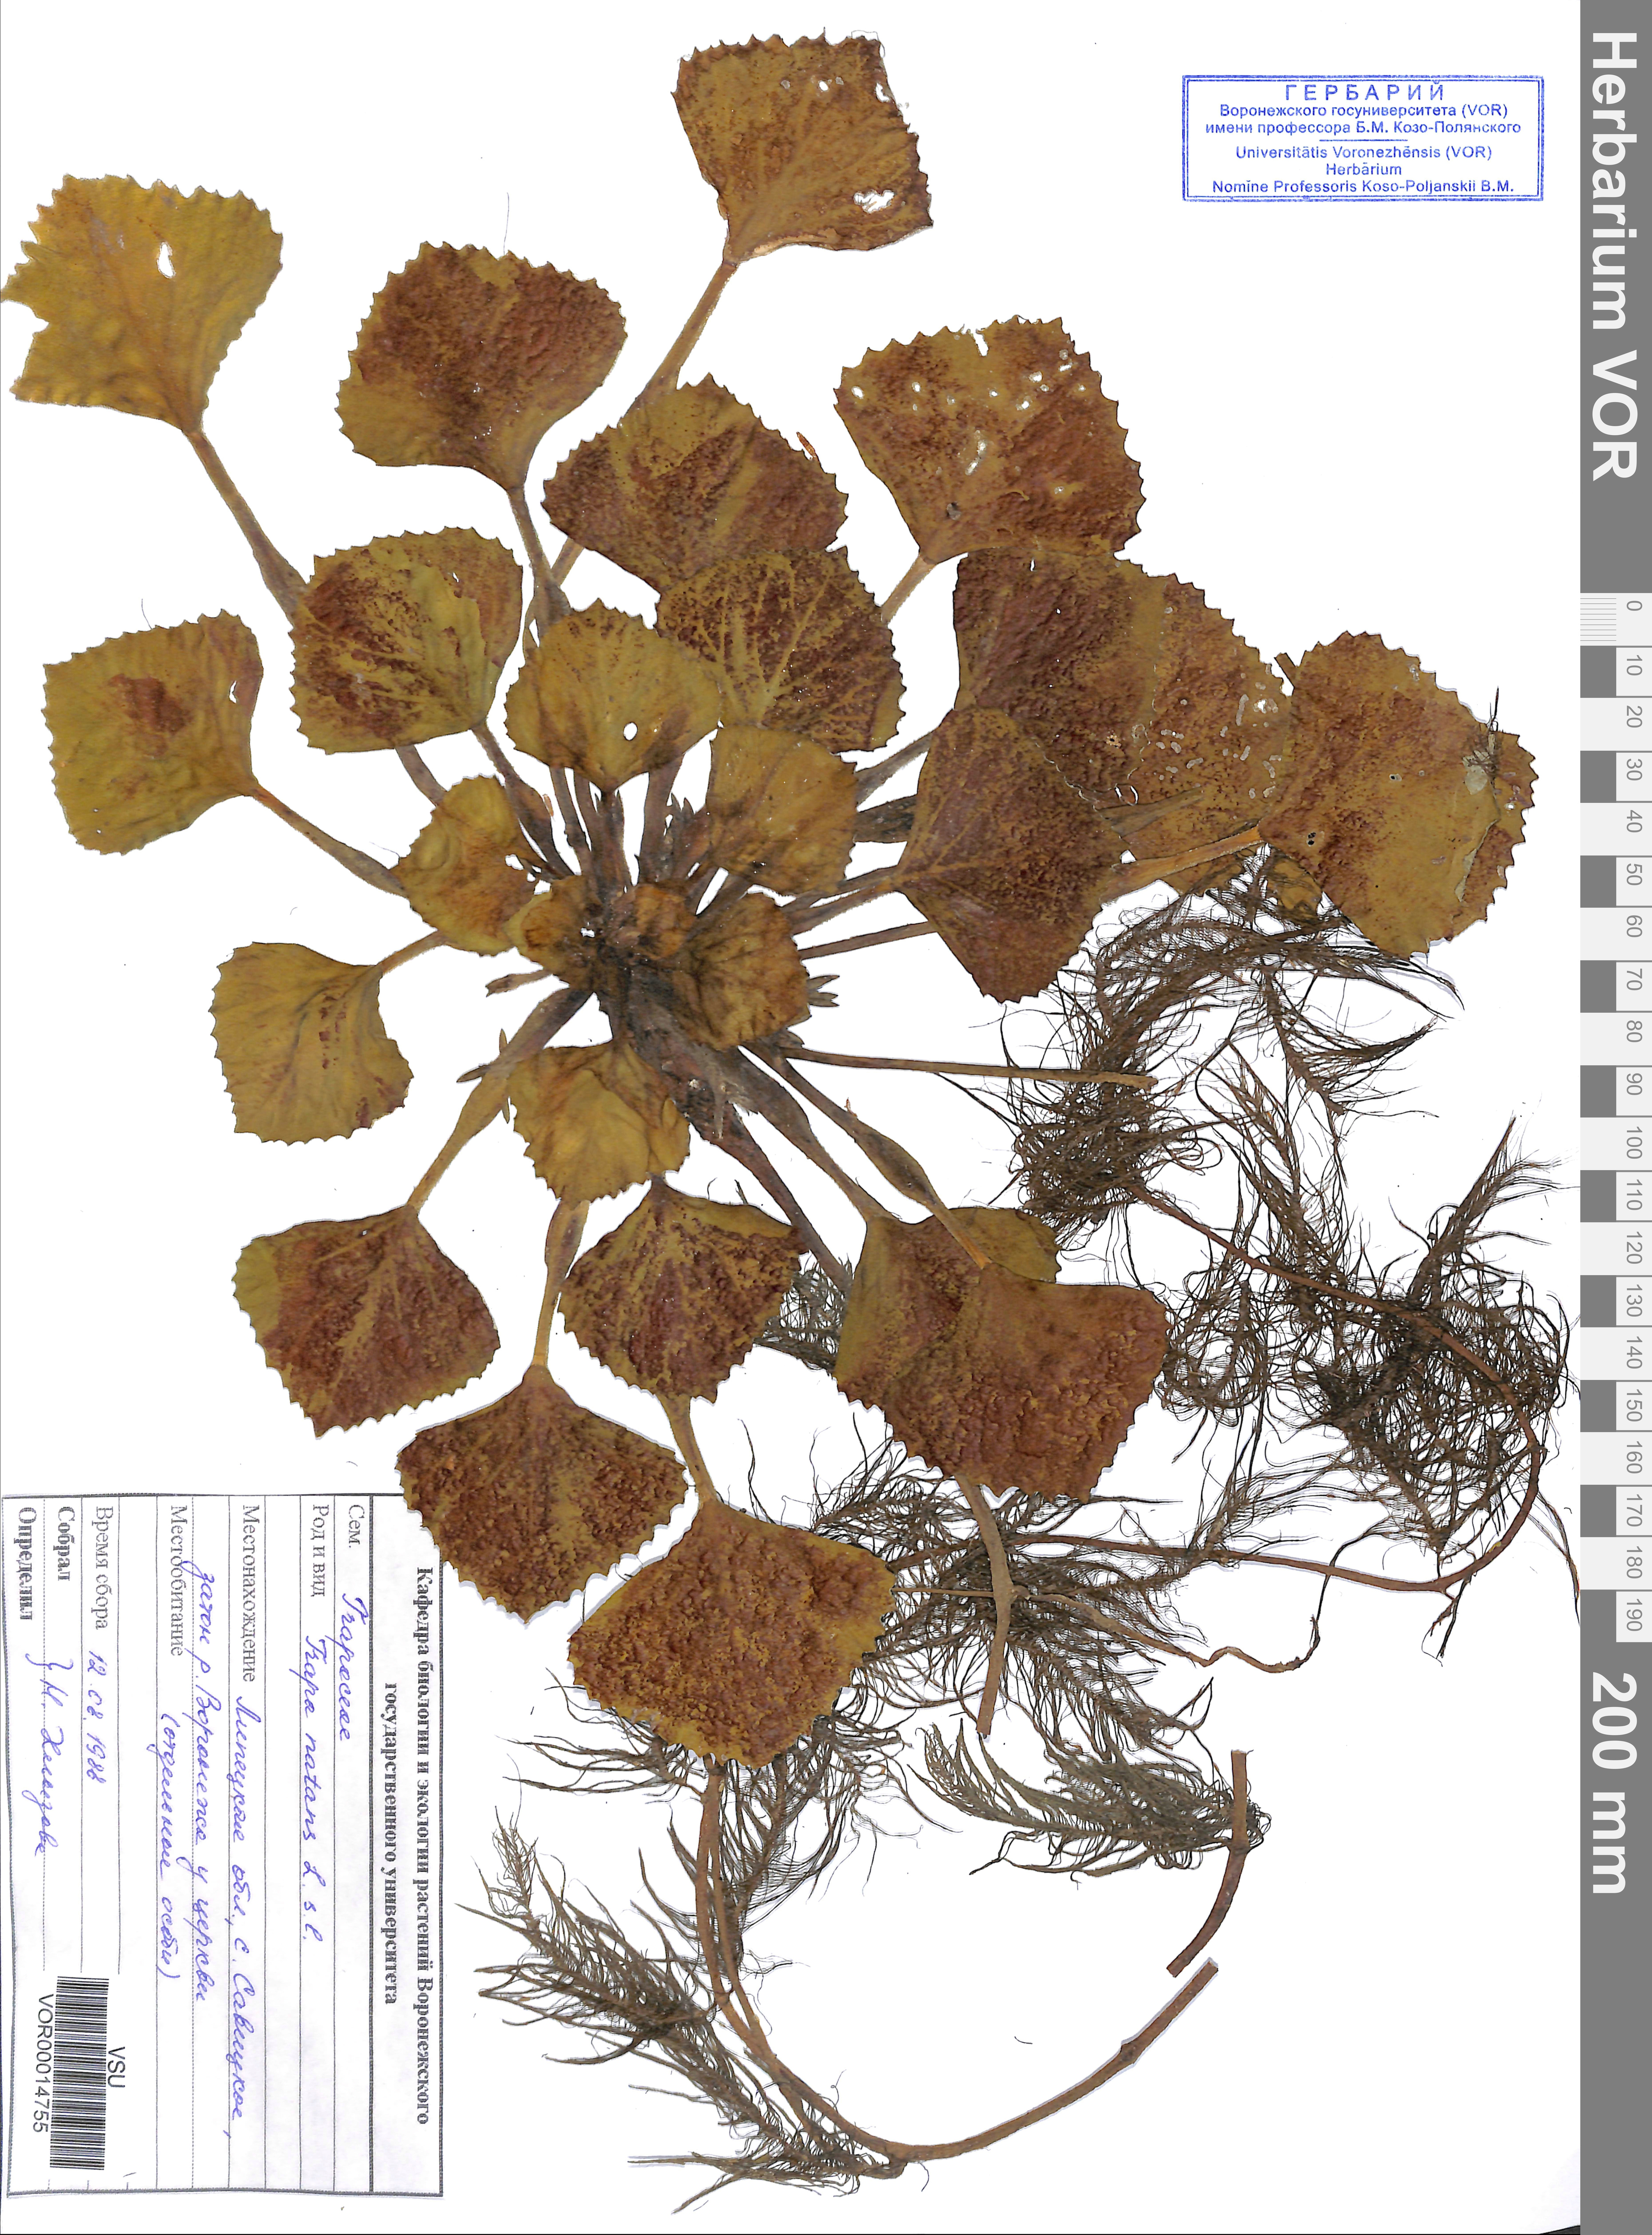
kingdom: Plantae
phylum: Tracheophyta
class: Magnoliopsida
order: Myrtales
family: Lythraceae
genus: Trapa
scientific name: Trapa natans
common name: Water chestnut
